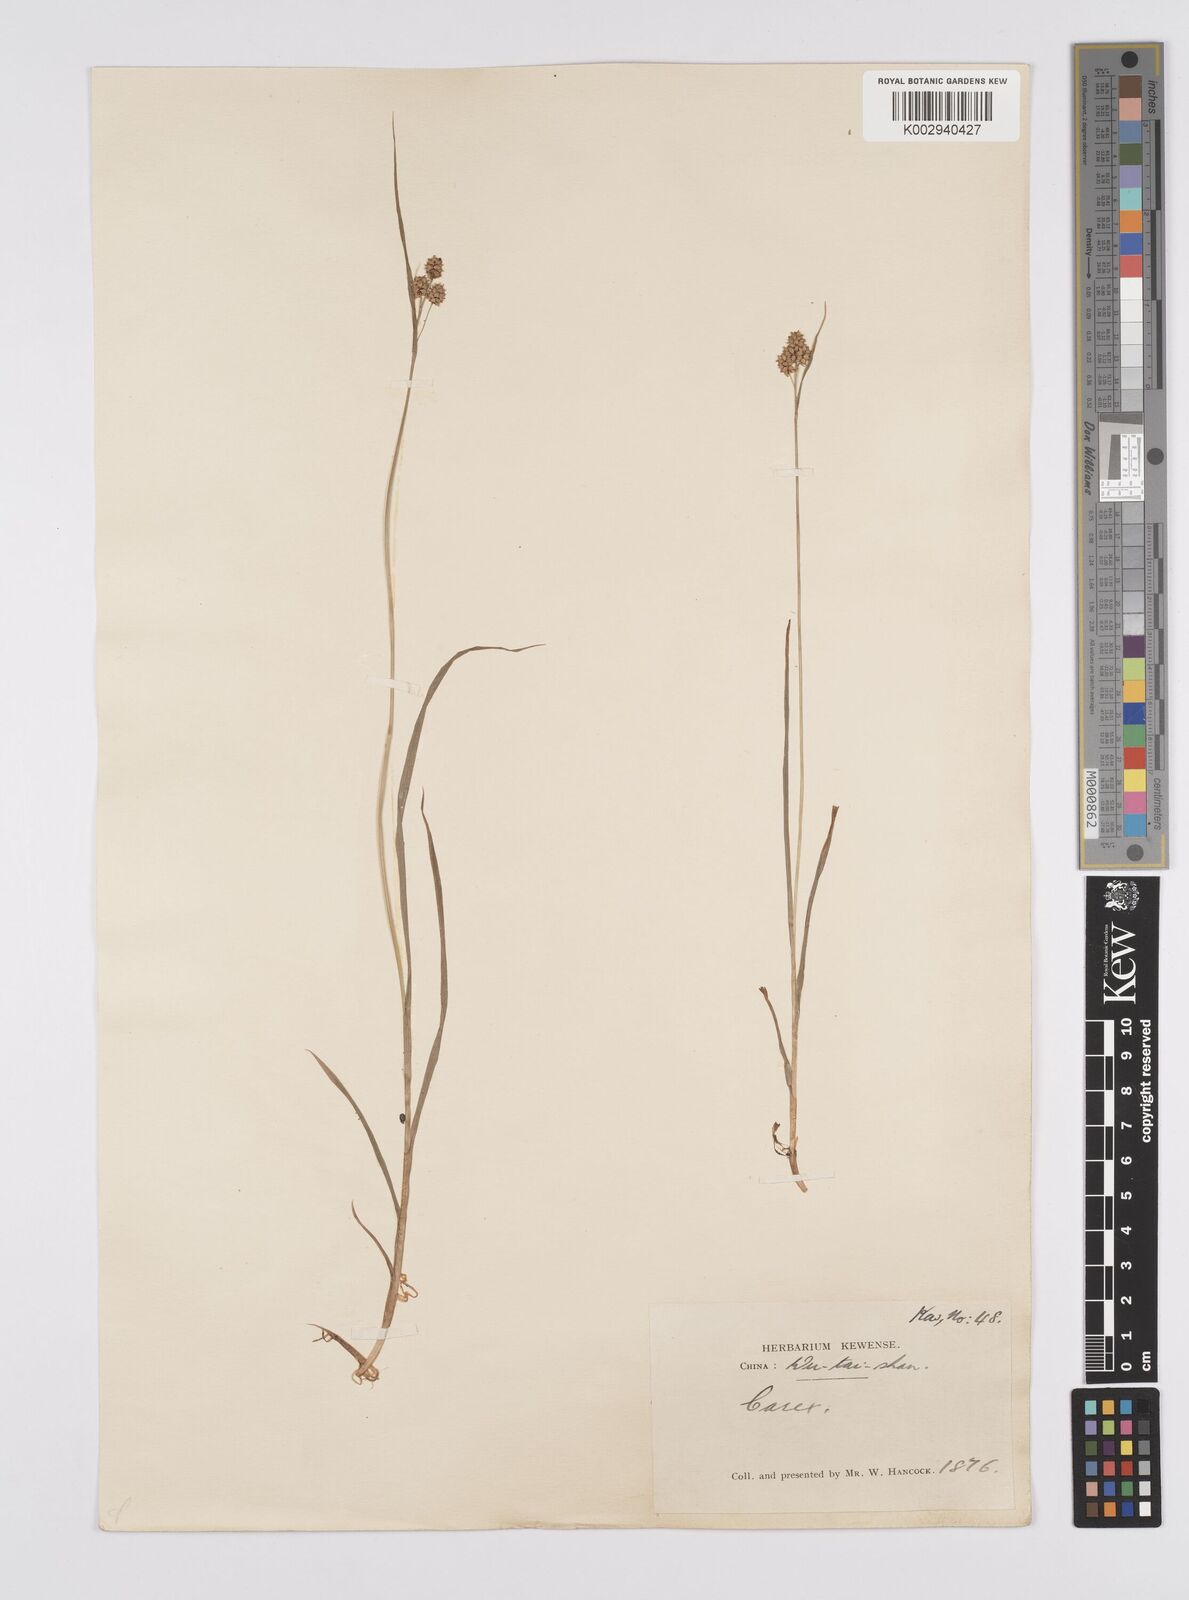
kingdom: Plantae
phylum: Tracheophyta
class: Liliopsida
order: Poales
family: Cyperaceae
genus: Carex
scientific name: Carex lehmannii
